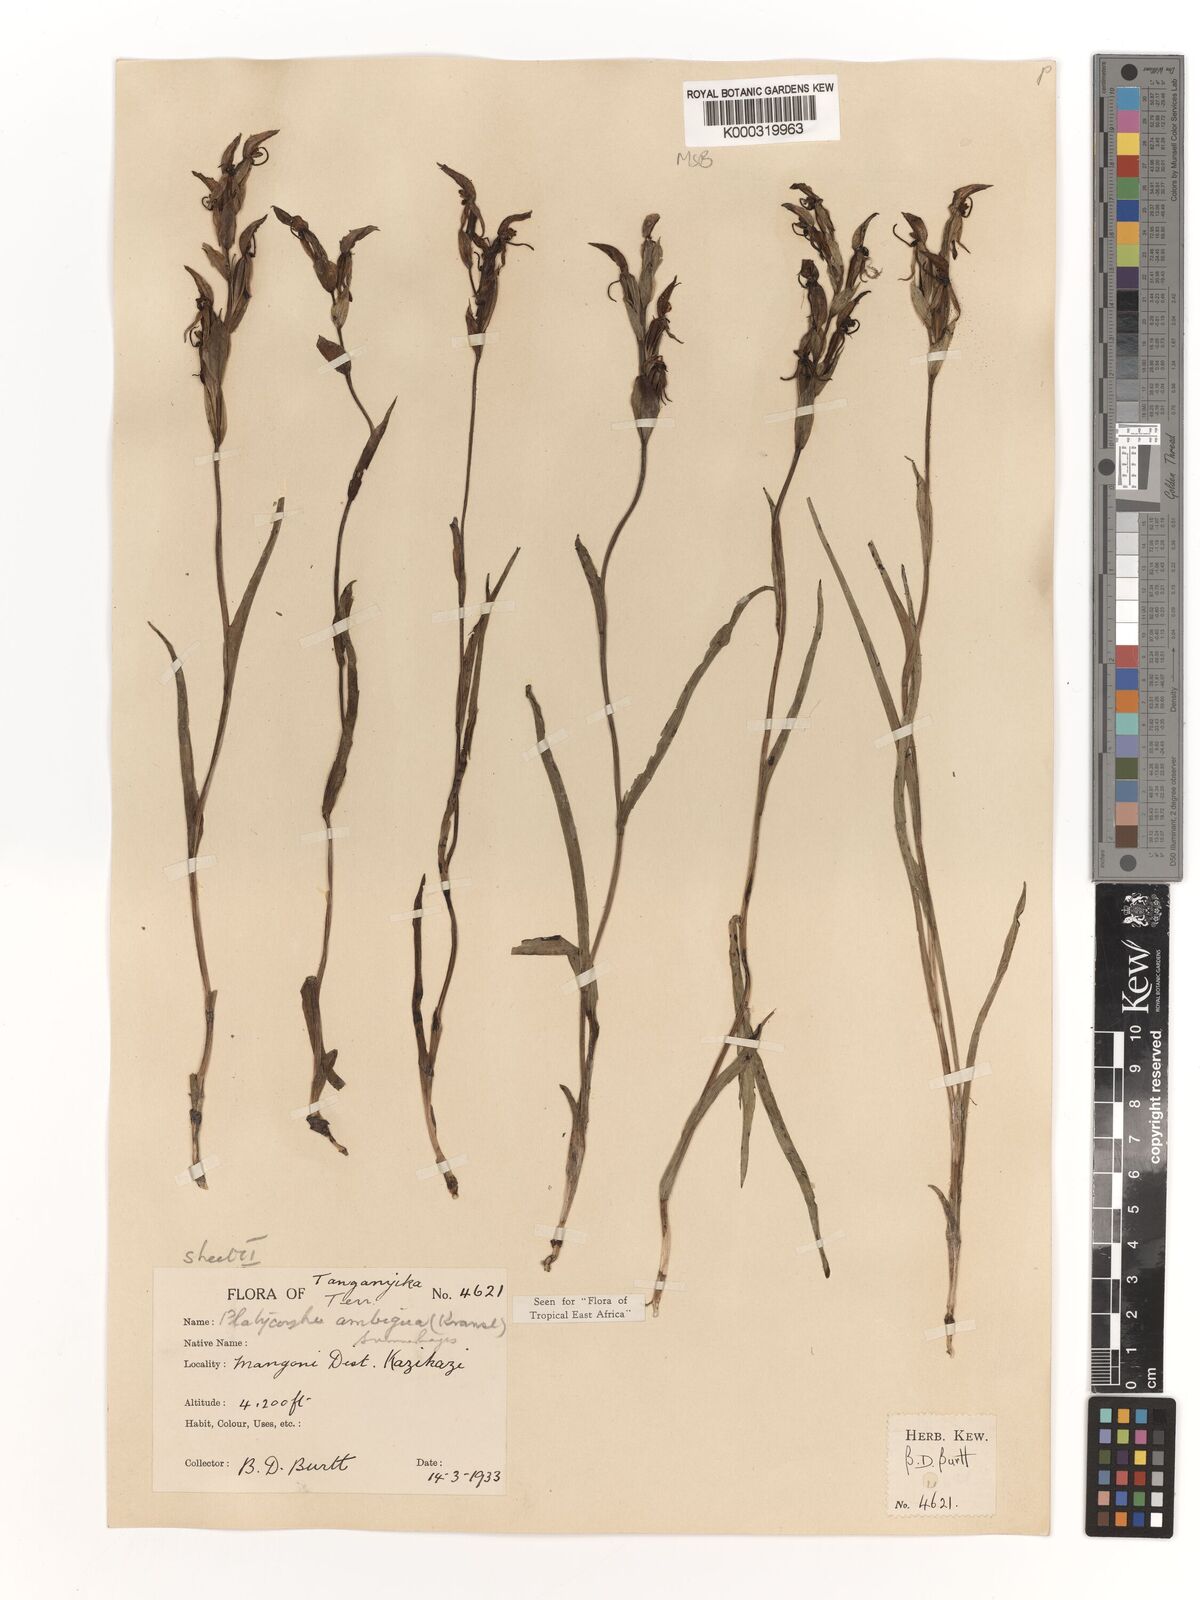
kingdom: Plantae
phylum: Tracheophyta
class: Liliopsida
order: Asparagales
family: Orchidaceae
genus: Platycoryne
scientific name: Platycoryne ambigua
